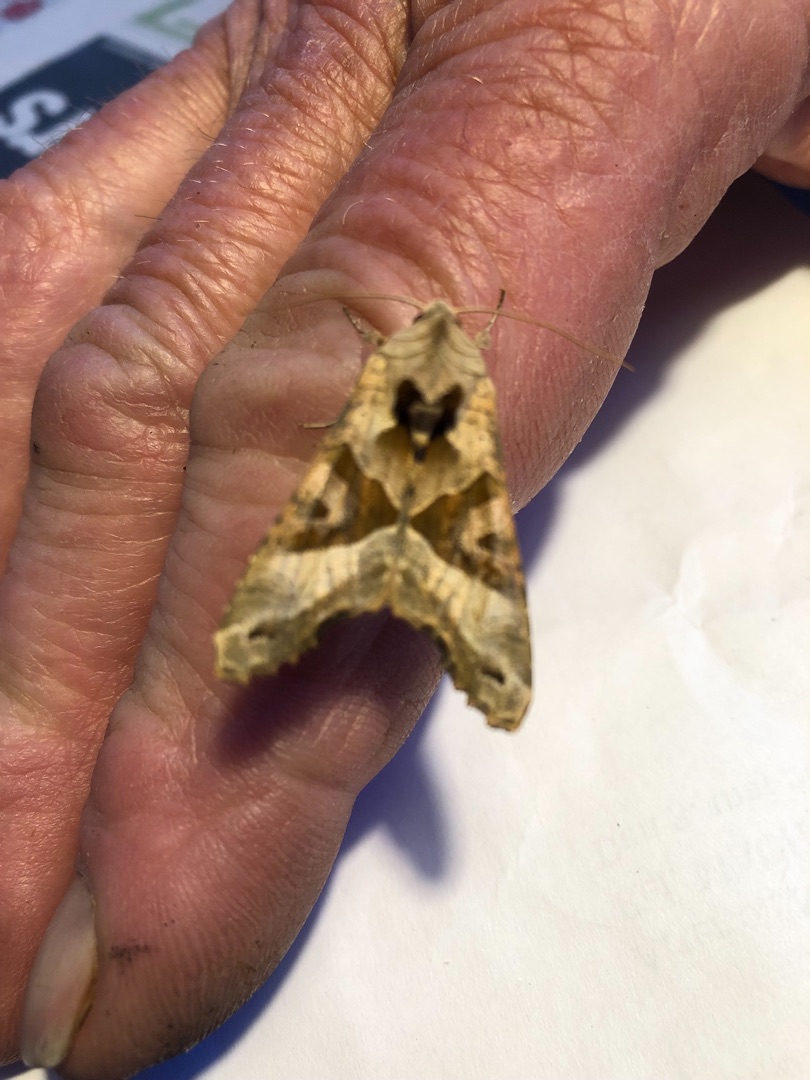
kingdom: Animalia
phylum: Arthropoda
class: Insecta
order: Lepidoptera
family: Noctuidae
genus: Phlogophora
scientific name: Phlogophora meticulosa
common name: Agatugle
